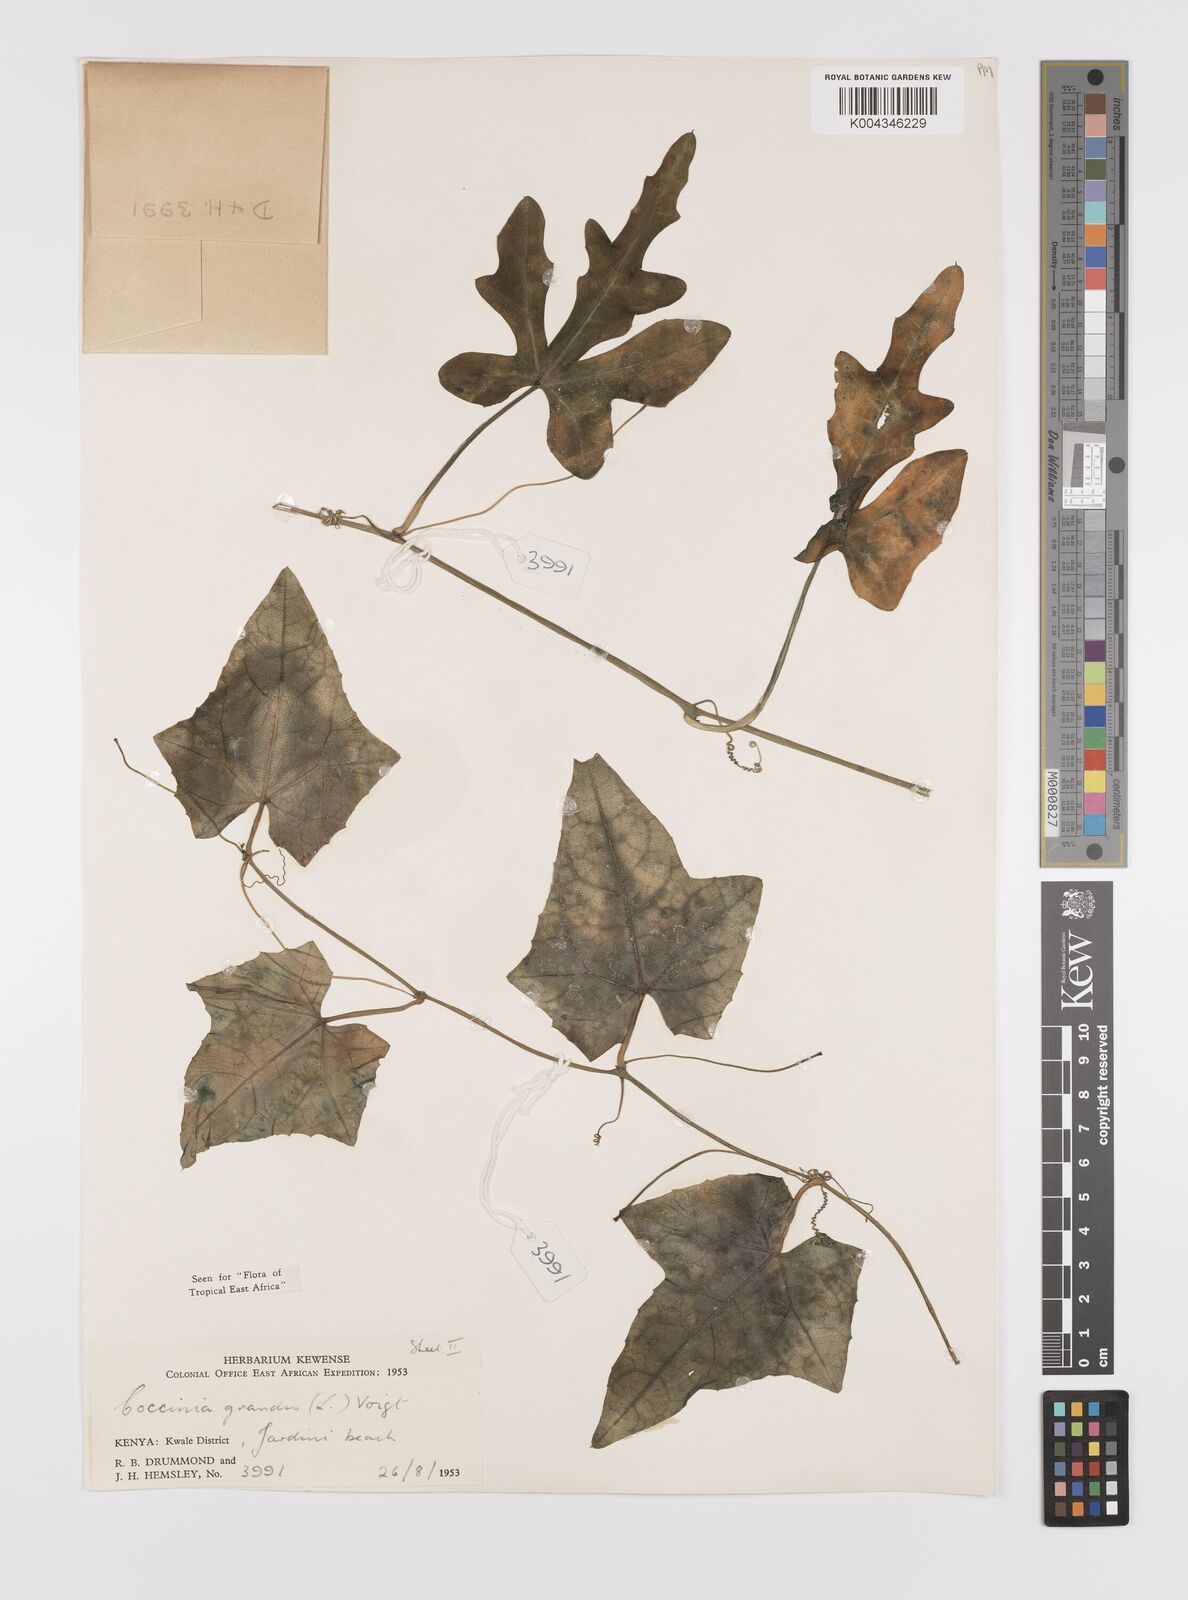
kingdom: Plantae
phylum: Tracheophyta
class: Magnoliopsida
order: Cucurbitales
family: Cucurbitaceae
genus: Coccinia
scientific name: Coccinia grandis
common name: Ivy gourd
